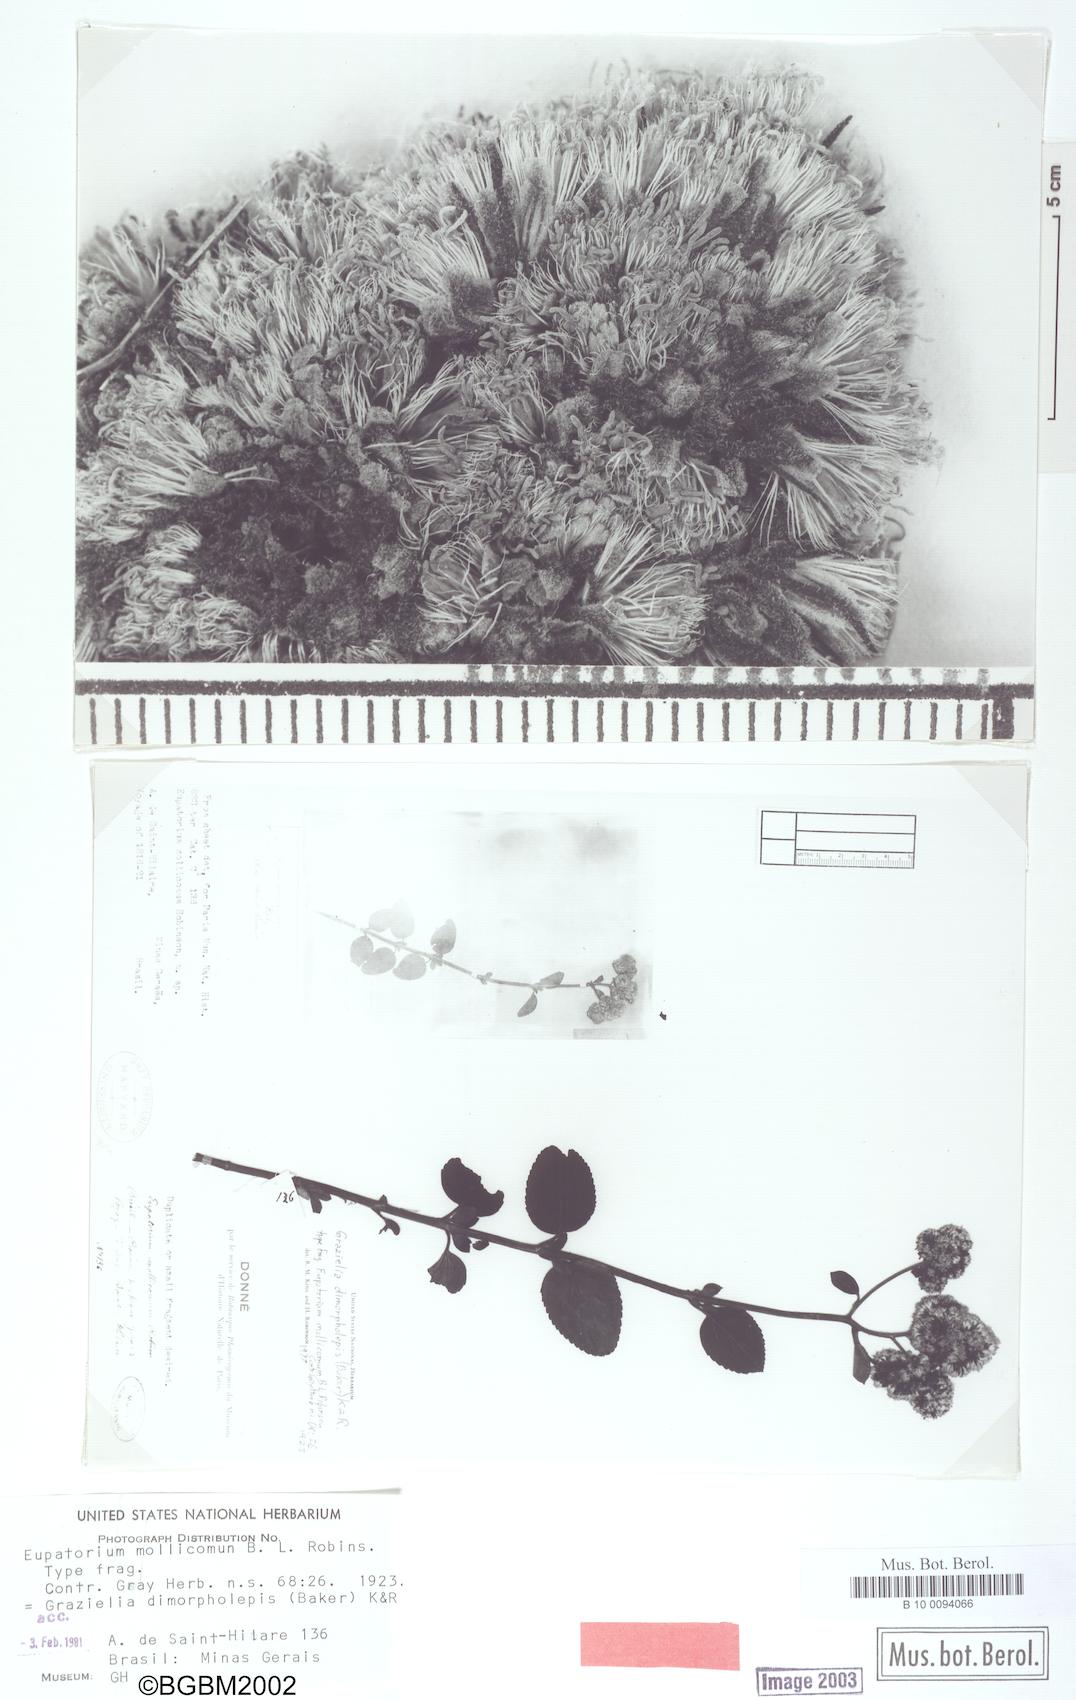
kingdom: Plantae
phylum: Tracheophyta
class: Magnoliopsida
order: Asterales
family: Asteraceae
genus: Grazielia
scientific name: Grazielia mollicoma
